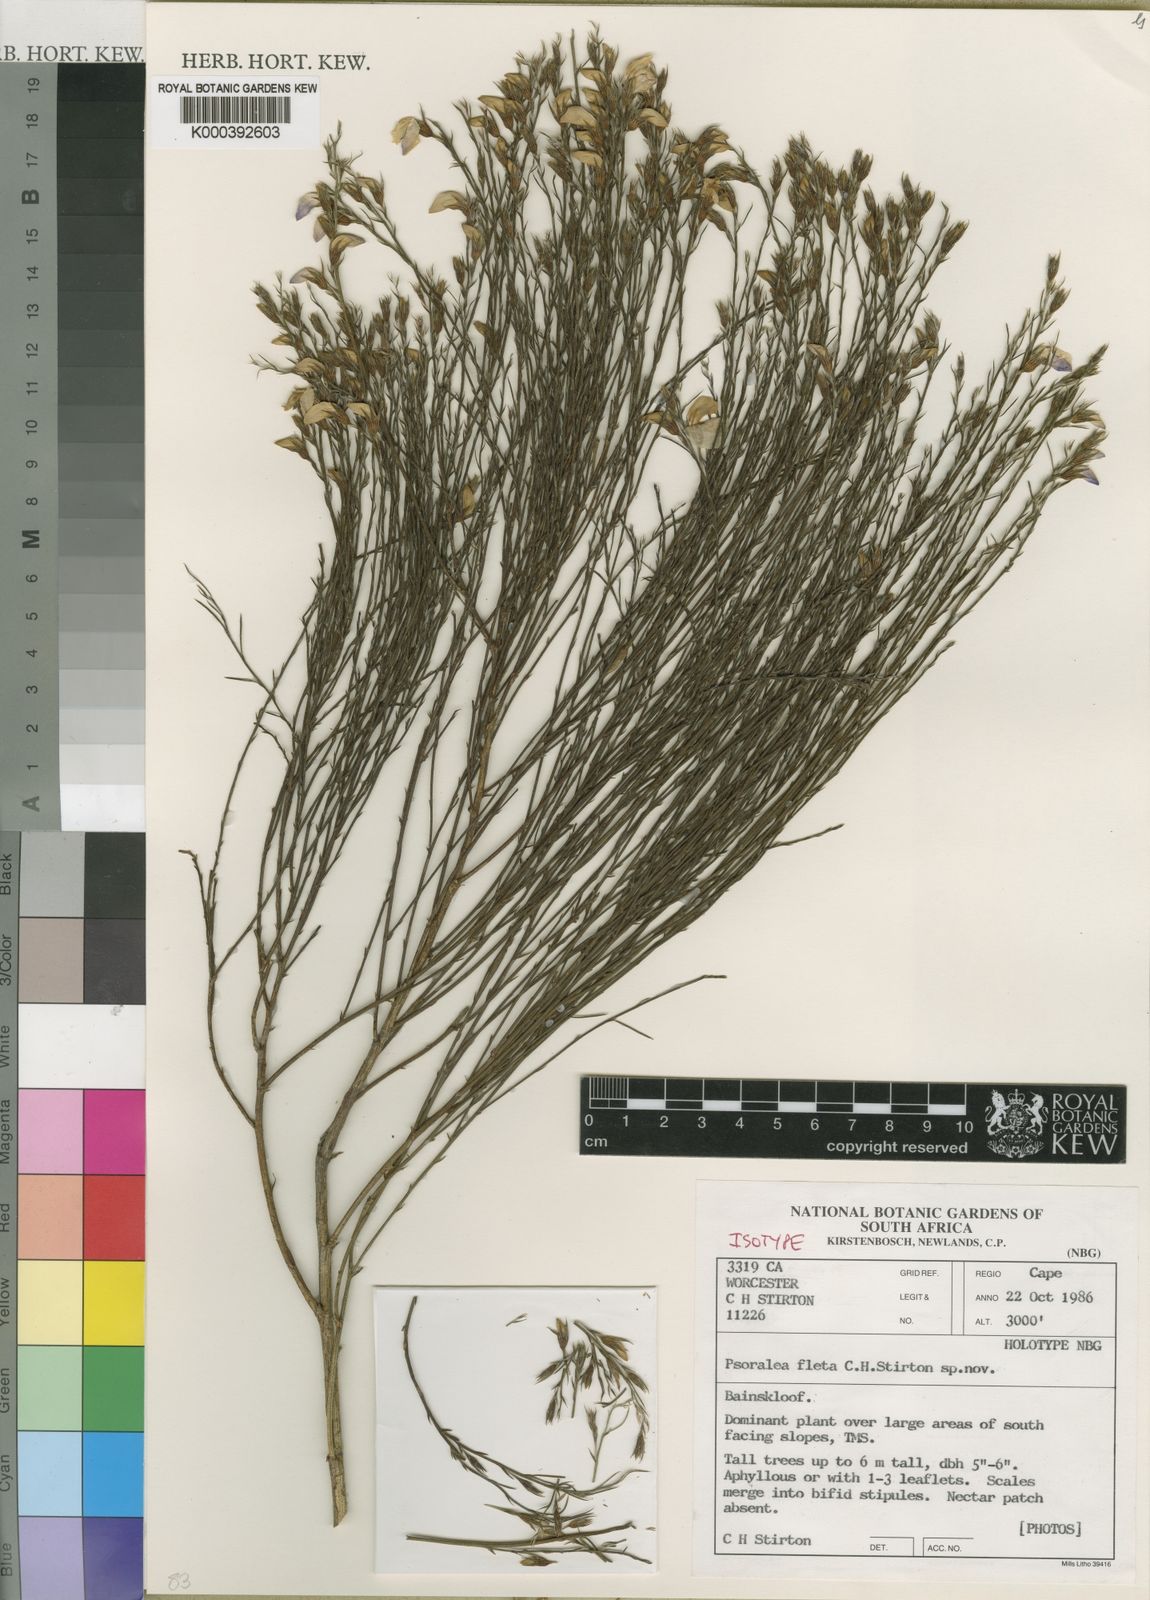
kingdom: Plantae
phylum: Tracheophyta
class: Magnoliopsida
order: Fabales
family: Fabaceae
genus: Psoralea
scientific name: Psoralea fleta
